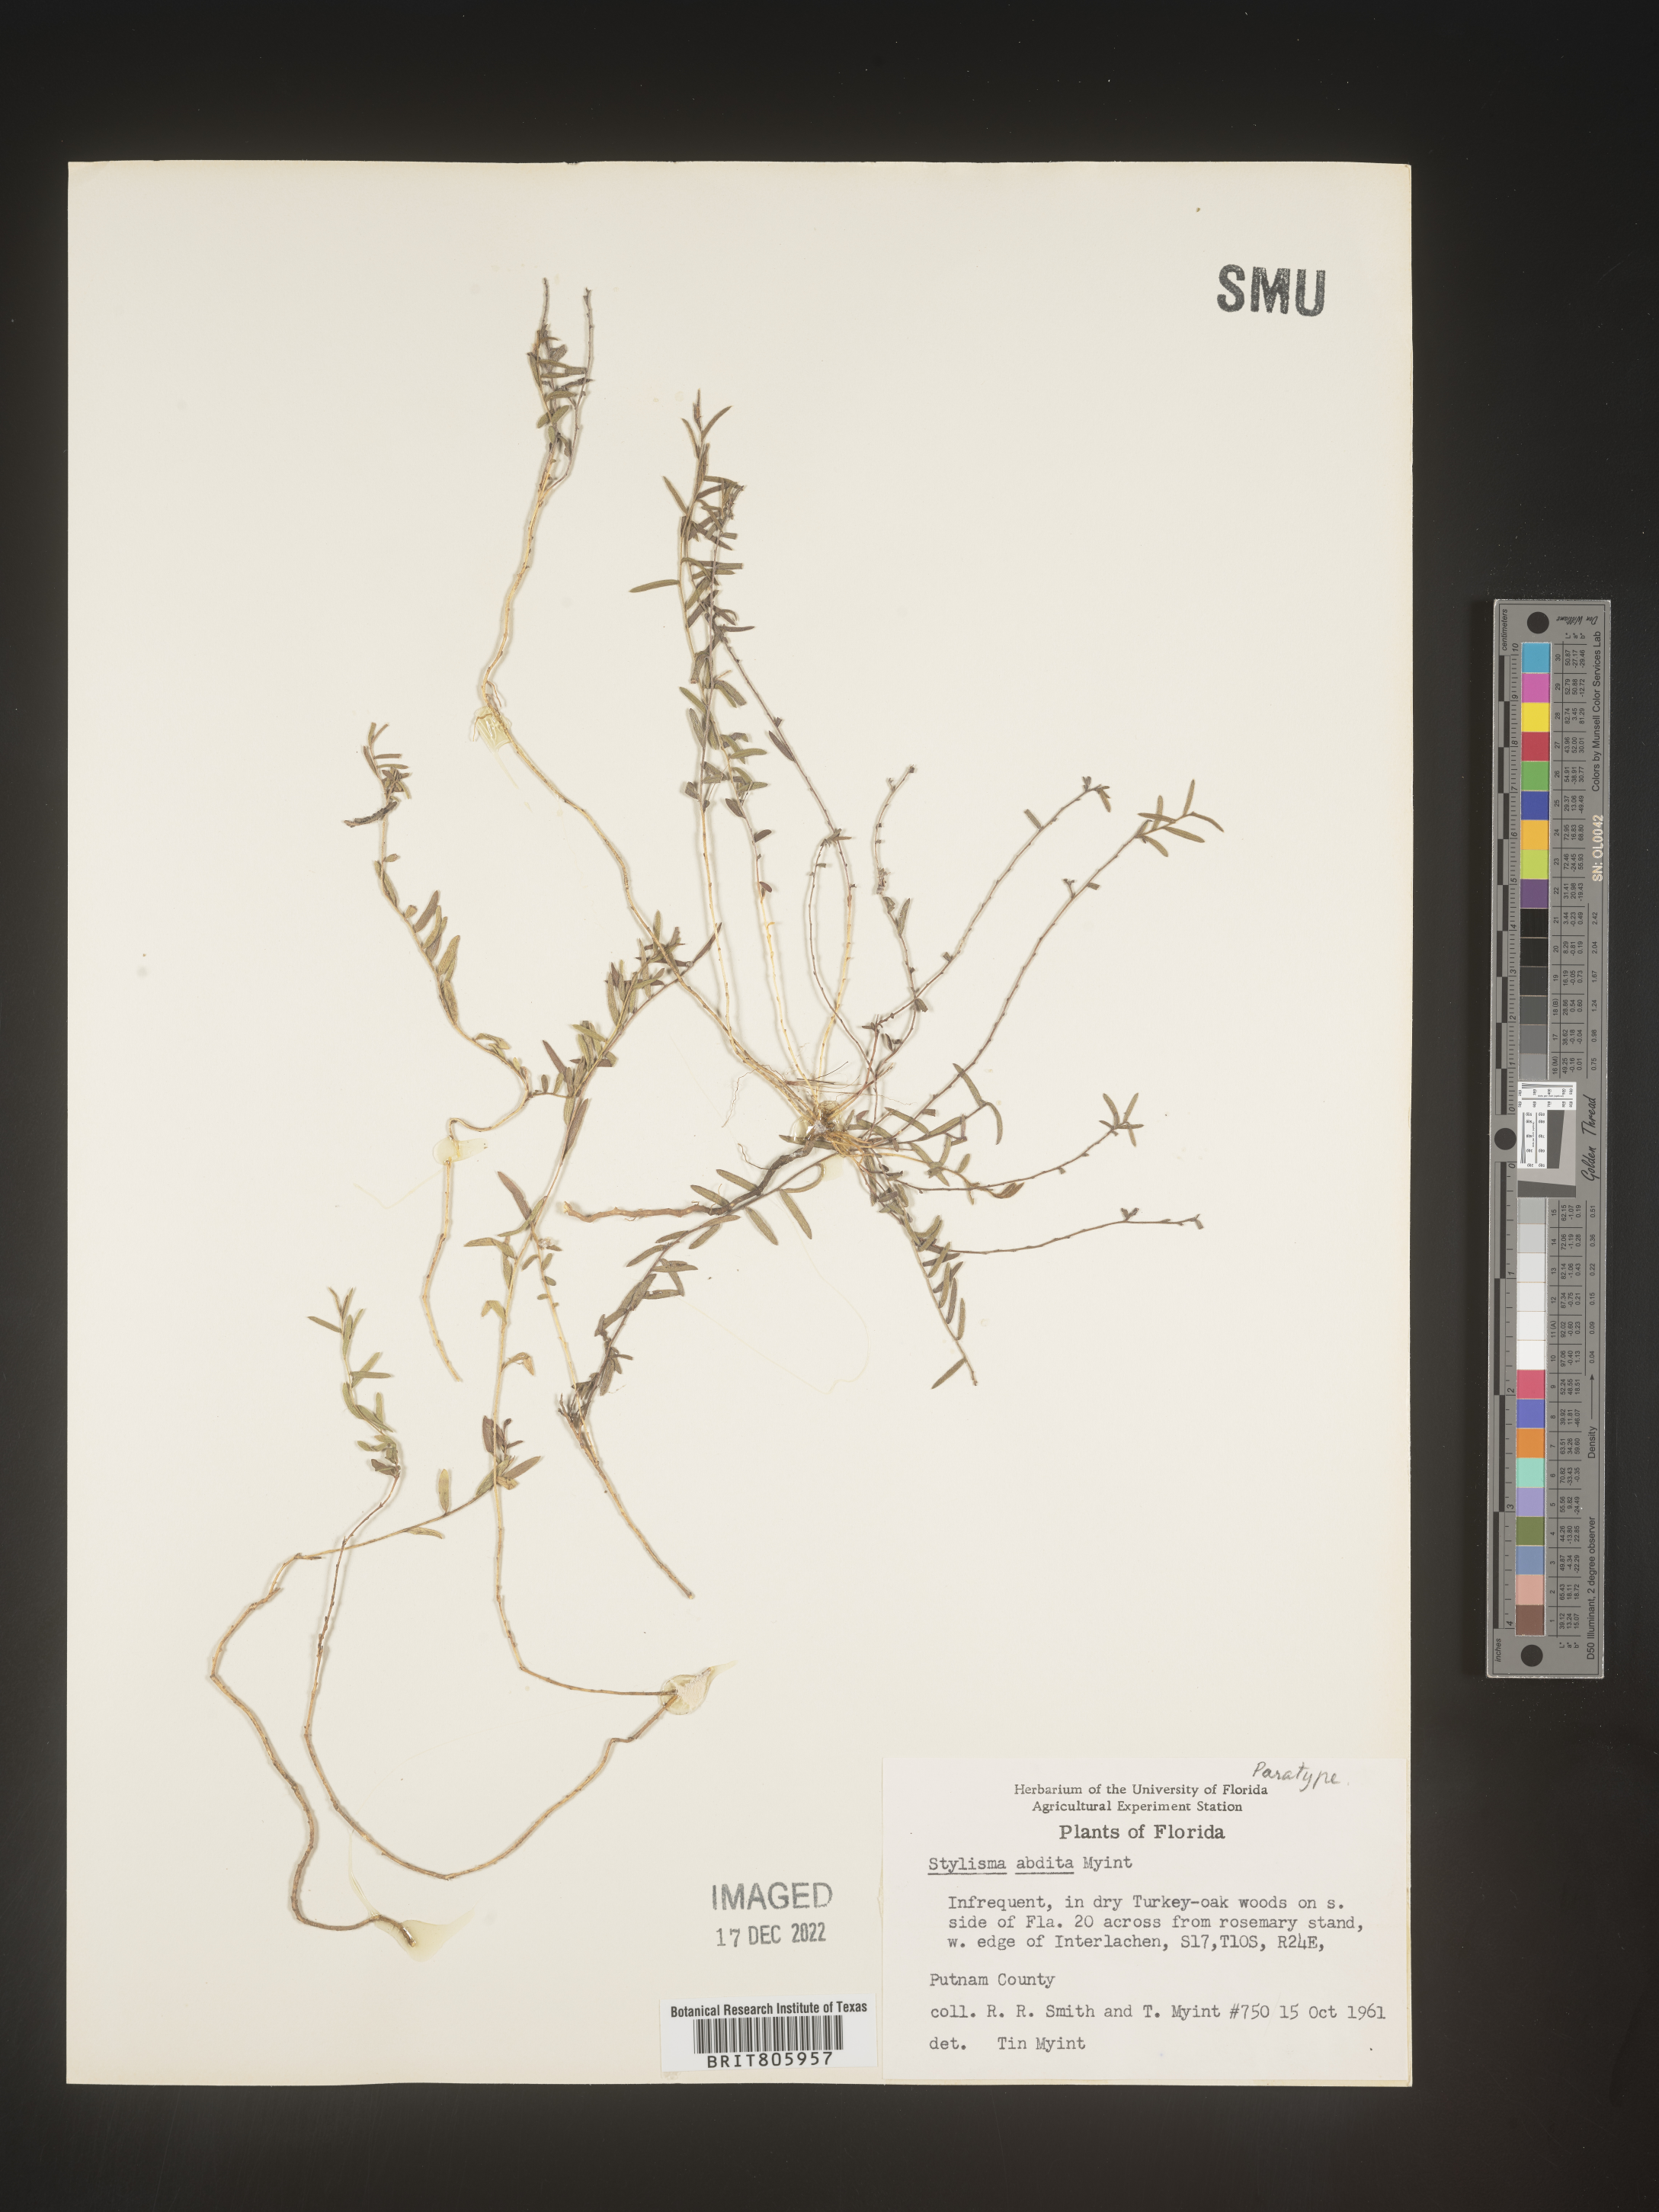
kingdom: Plantae
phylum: Tracheophyta
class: Magnoliopsida
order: Solanales
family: Convolvulaceae
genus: Stylisma
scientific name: Stylisma
